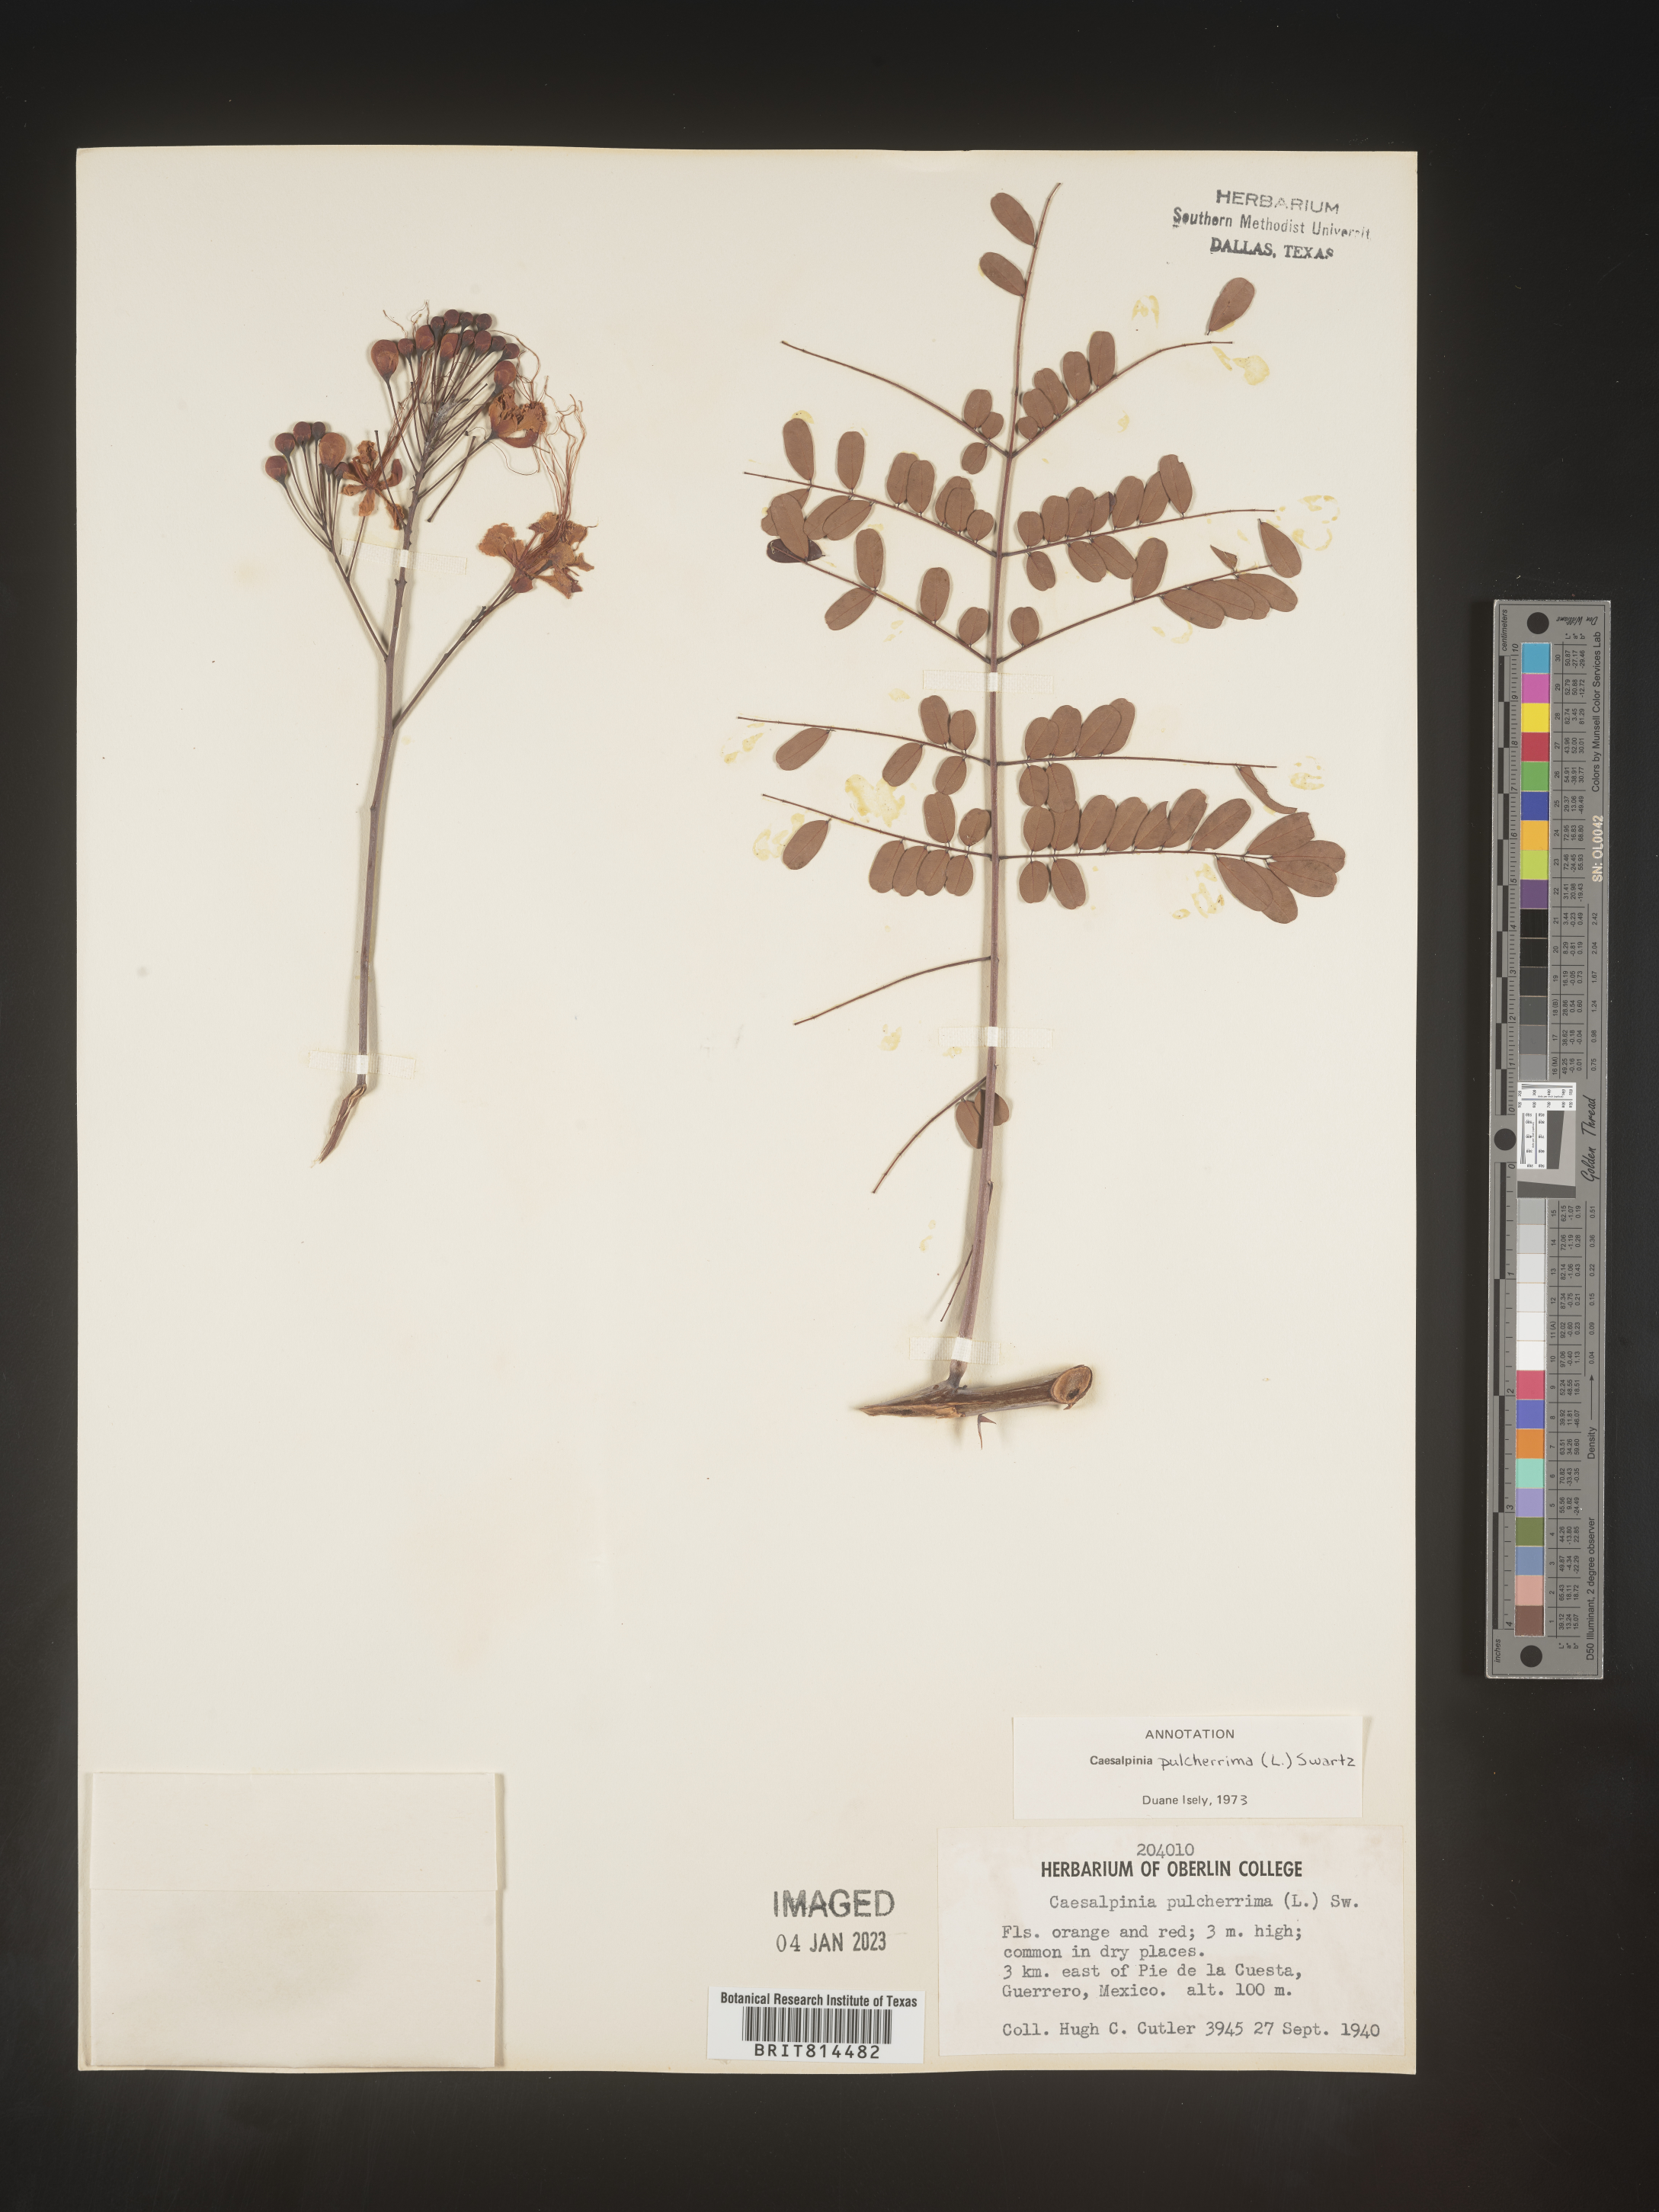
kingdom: Plantae
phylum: Tracheophyta
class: Magnoliopsida
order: Fabales
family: Fabaceae
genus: Caesalpinia
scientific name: Caesalpinia
